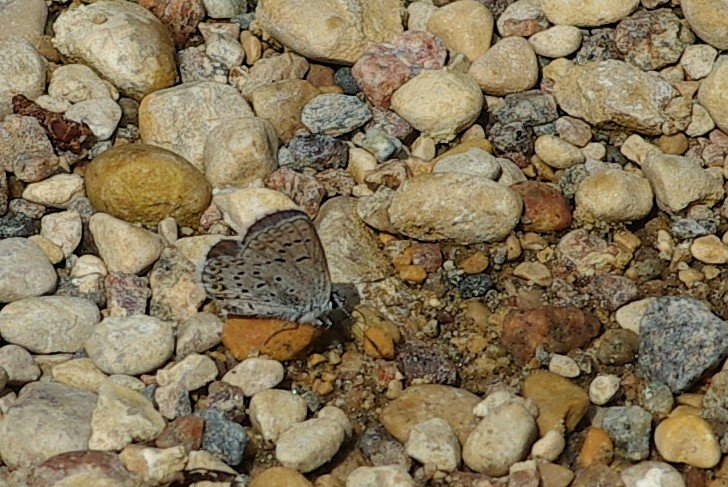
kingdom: Animalia
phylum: Arthropoda
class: Insecta
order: Lepidoptera
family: Lycaenidae
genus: Lycaeides
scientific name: Lycaeides idas
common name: Northern Blue
